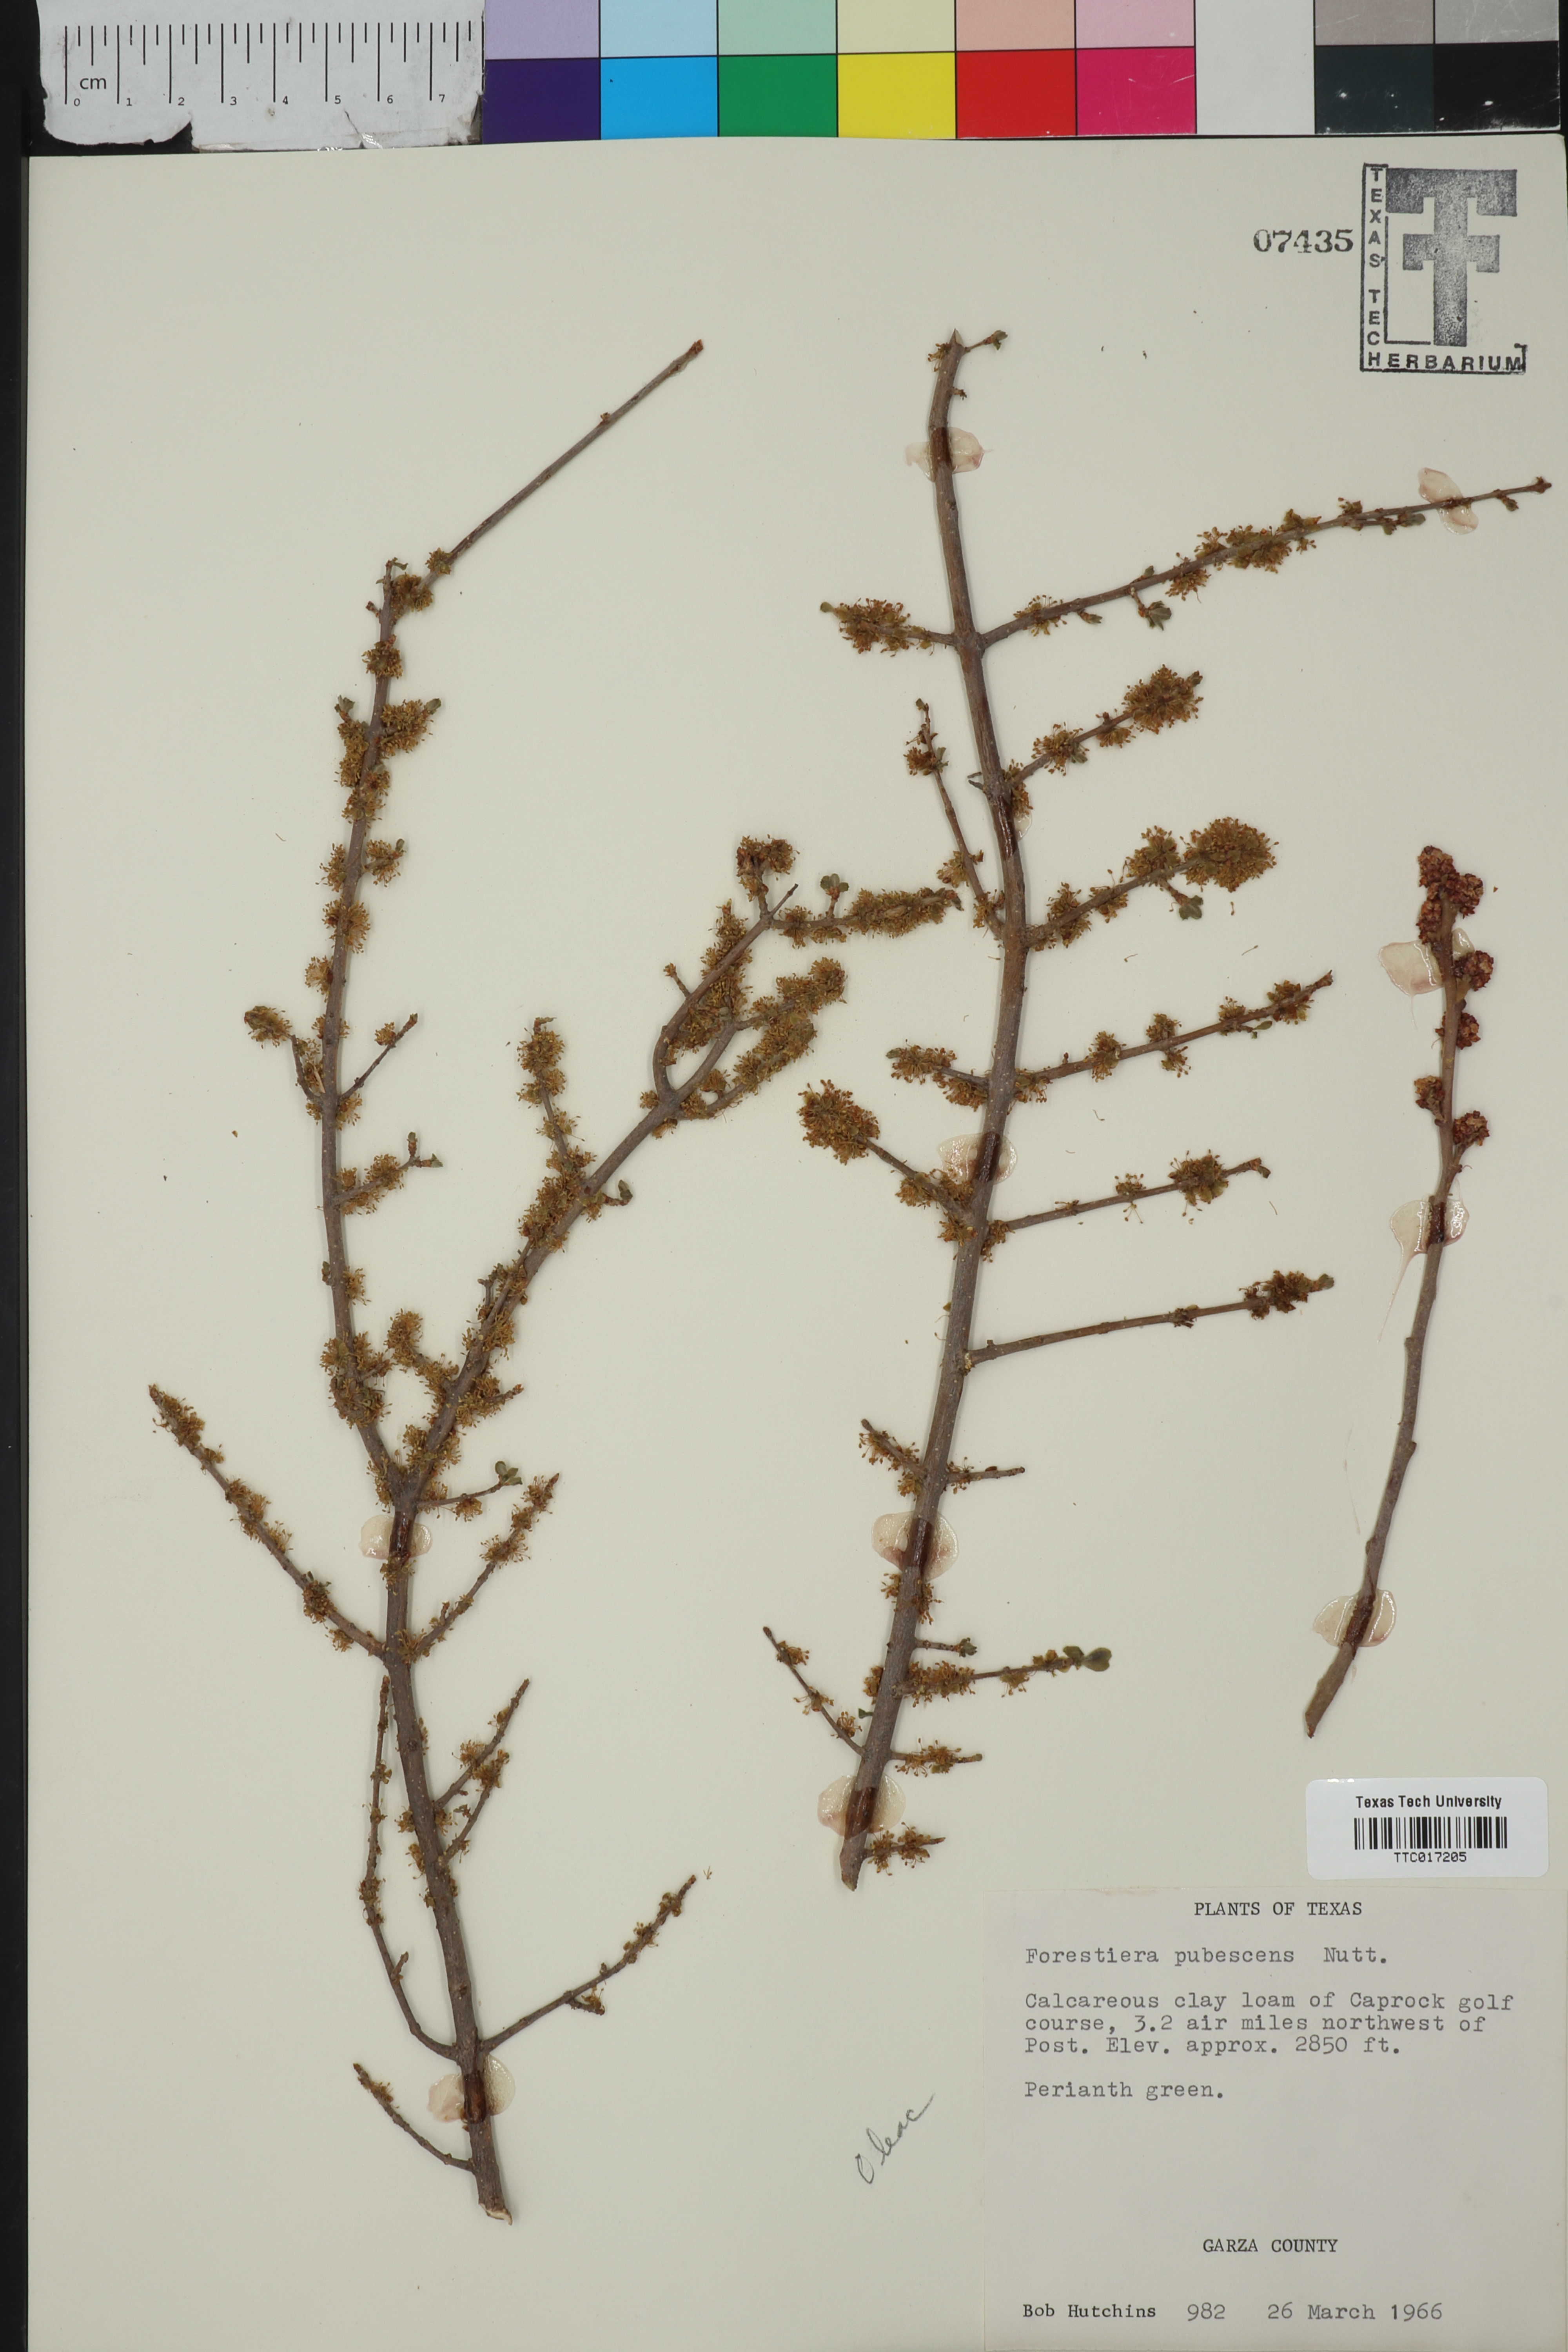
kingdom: Plantae
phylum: Tracheophyta
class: Magnoliopsida
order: Lamiales
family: Oleaceae
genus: Forestiera
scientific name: Forestiera pubescens
